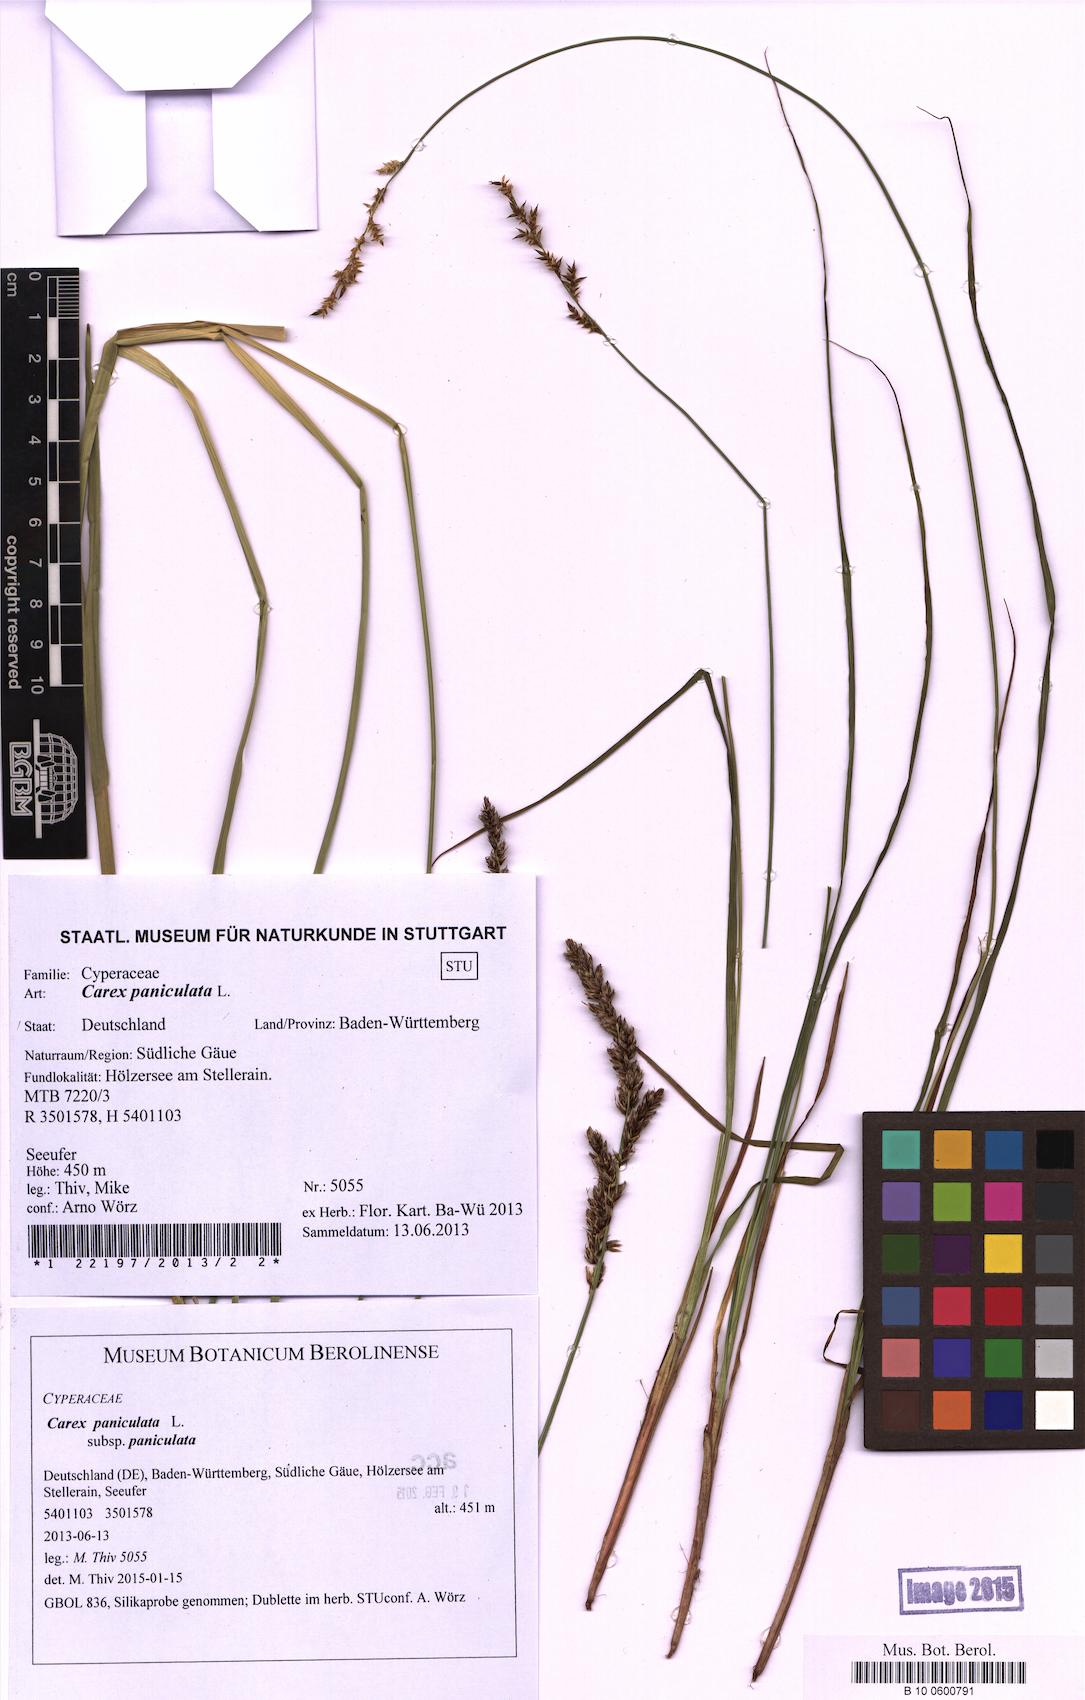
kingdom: Plantae
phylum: Tracheophyta
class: Liliopsida
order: Poales
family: Cyperaceae
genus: Carex
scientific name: Carex paniculata
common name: Greater tussock-sedge
